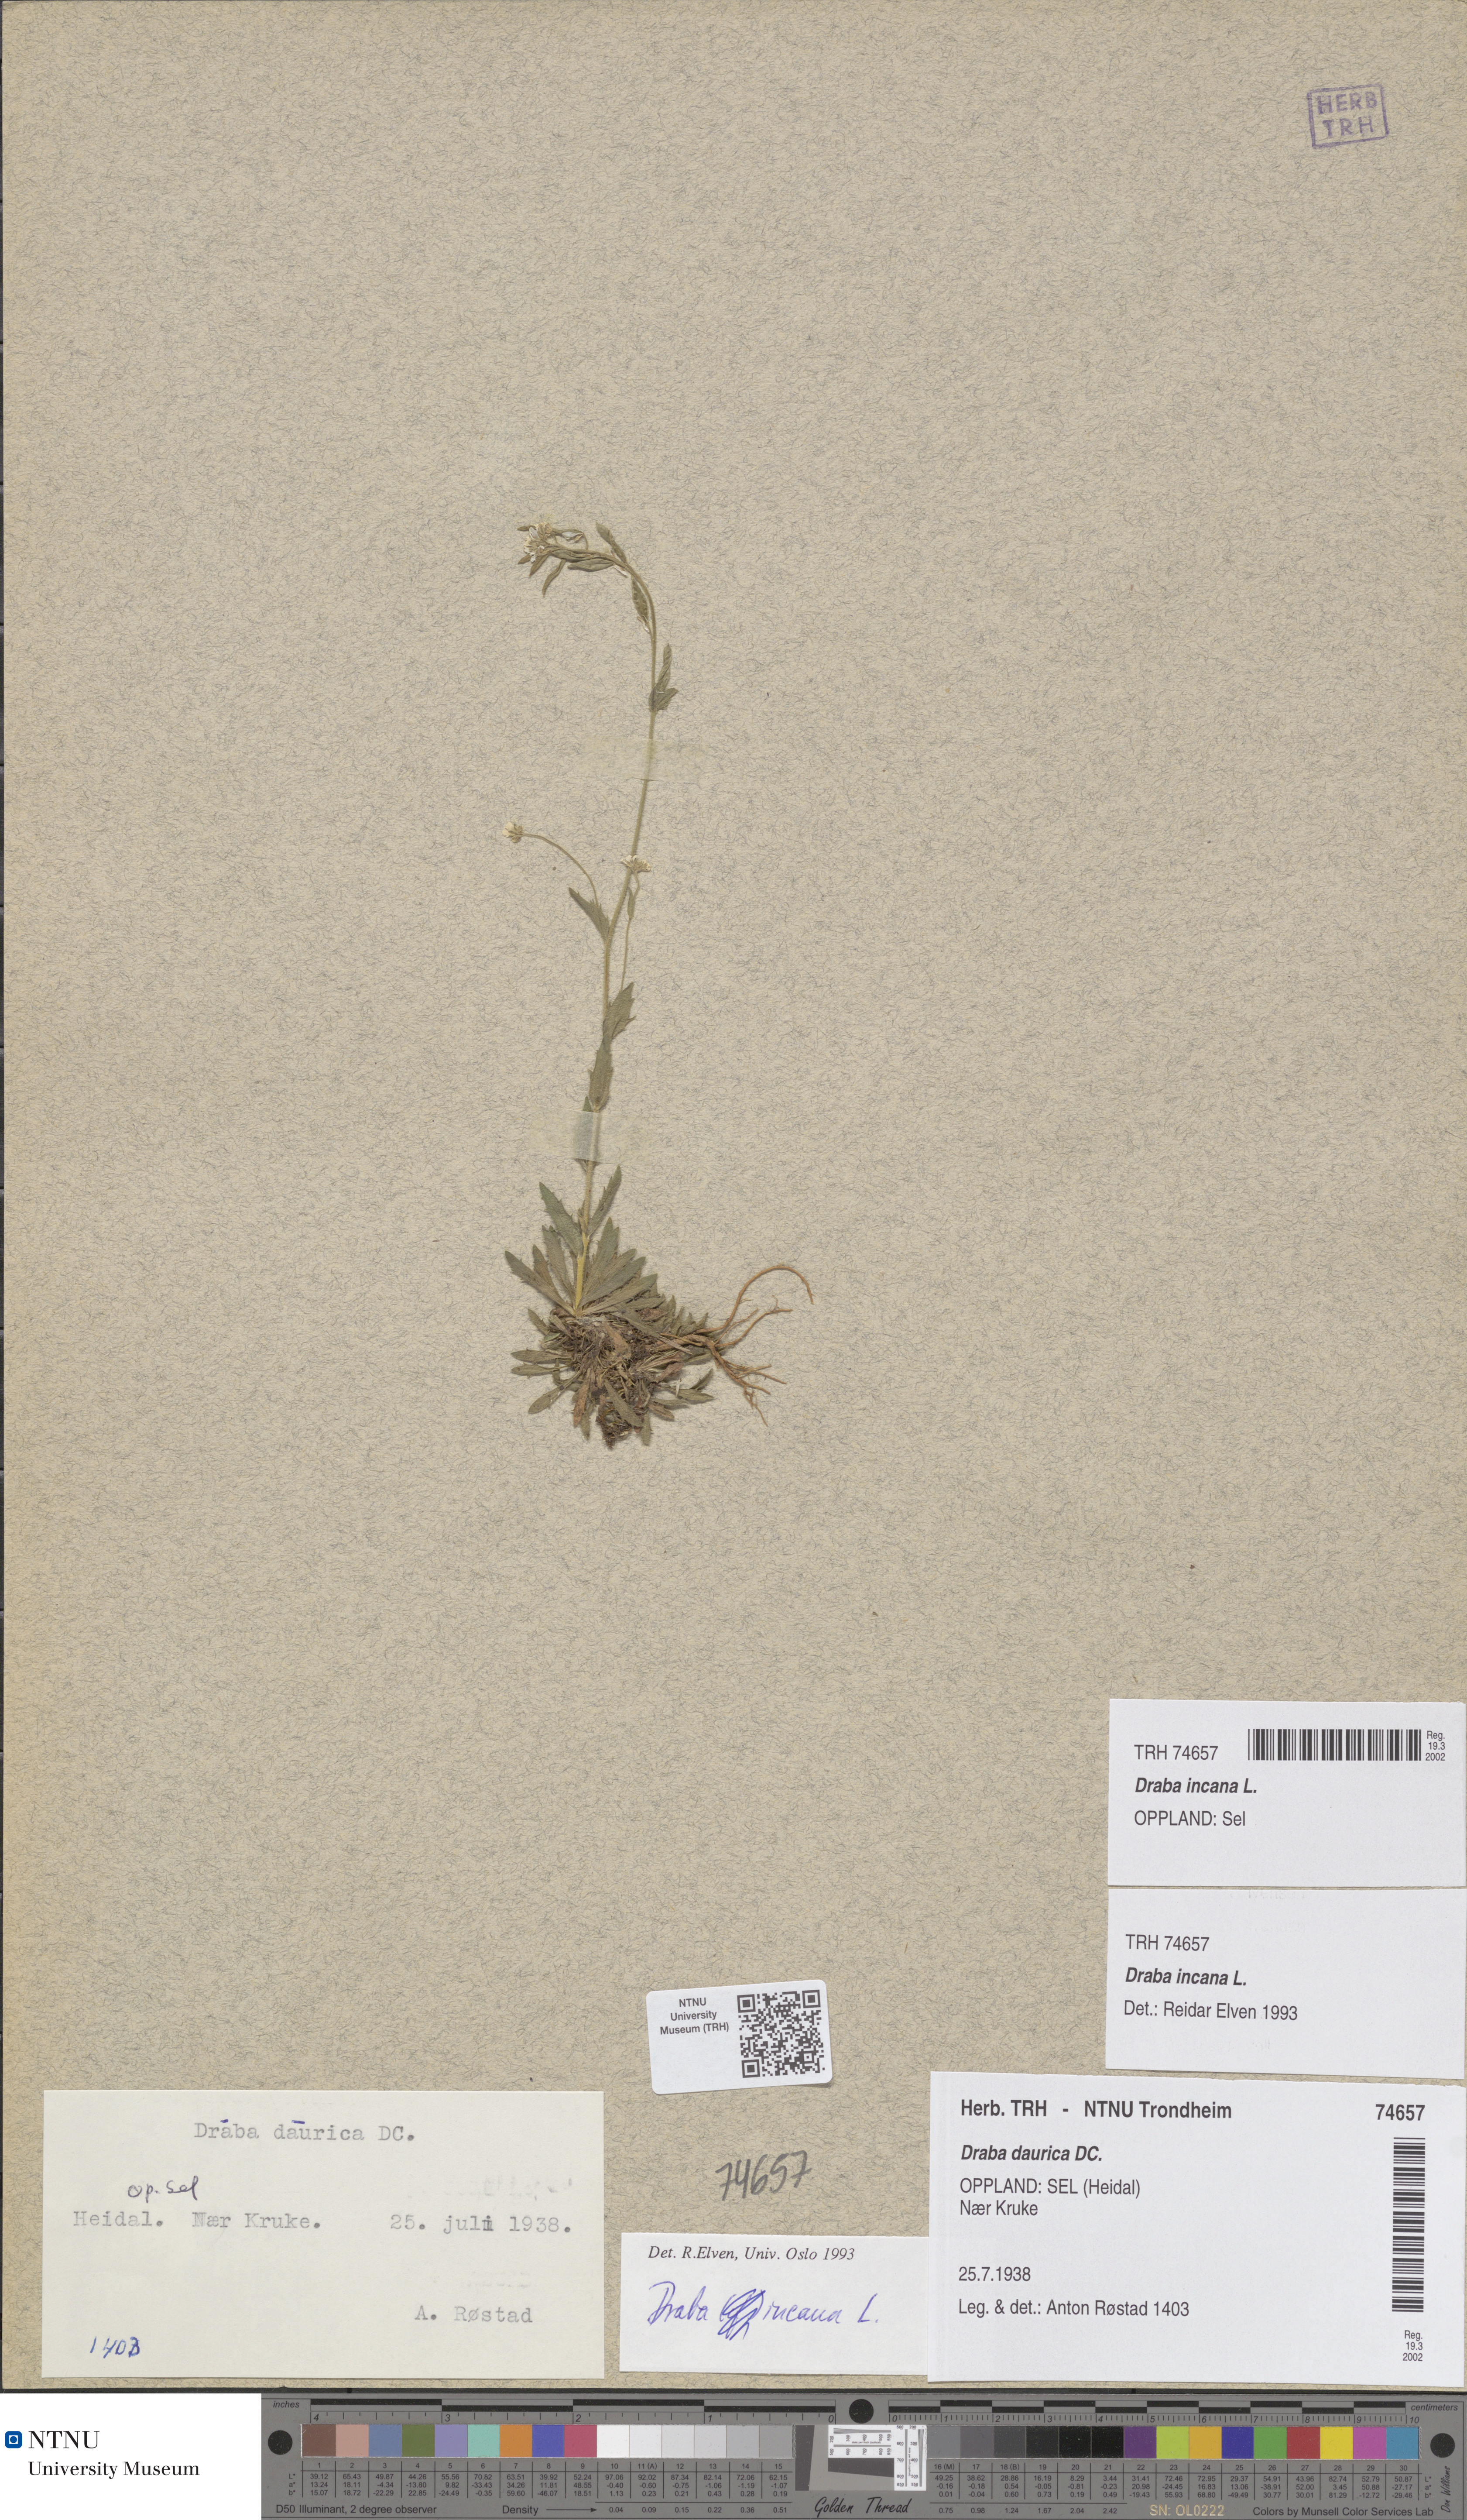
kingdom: Plantae
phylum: Tracheophyta
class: Magnoliopsida
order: Brassicales
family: Brassicaceae
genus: Draba
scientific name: Draba incana
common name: Hoary whitlow-grass
